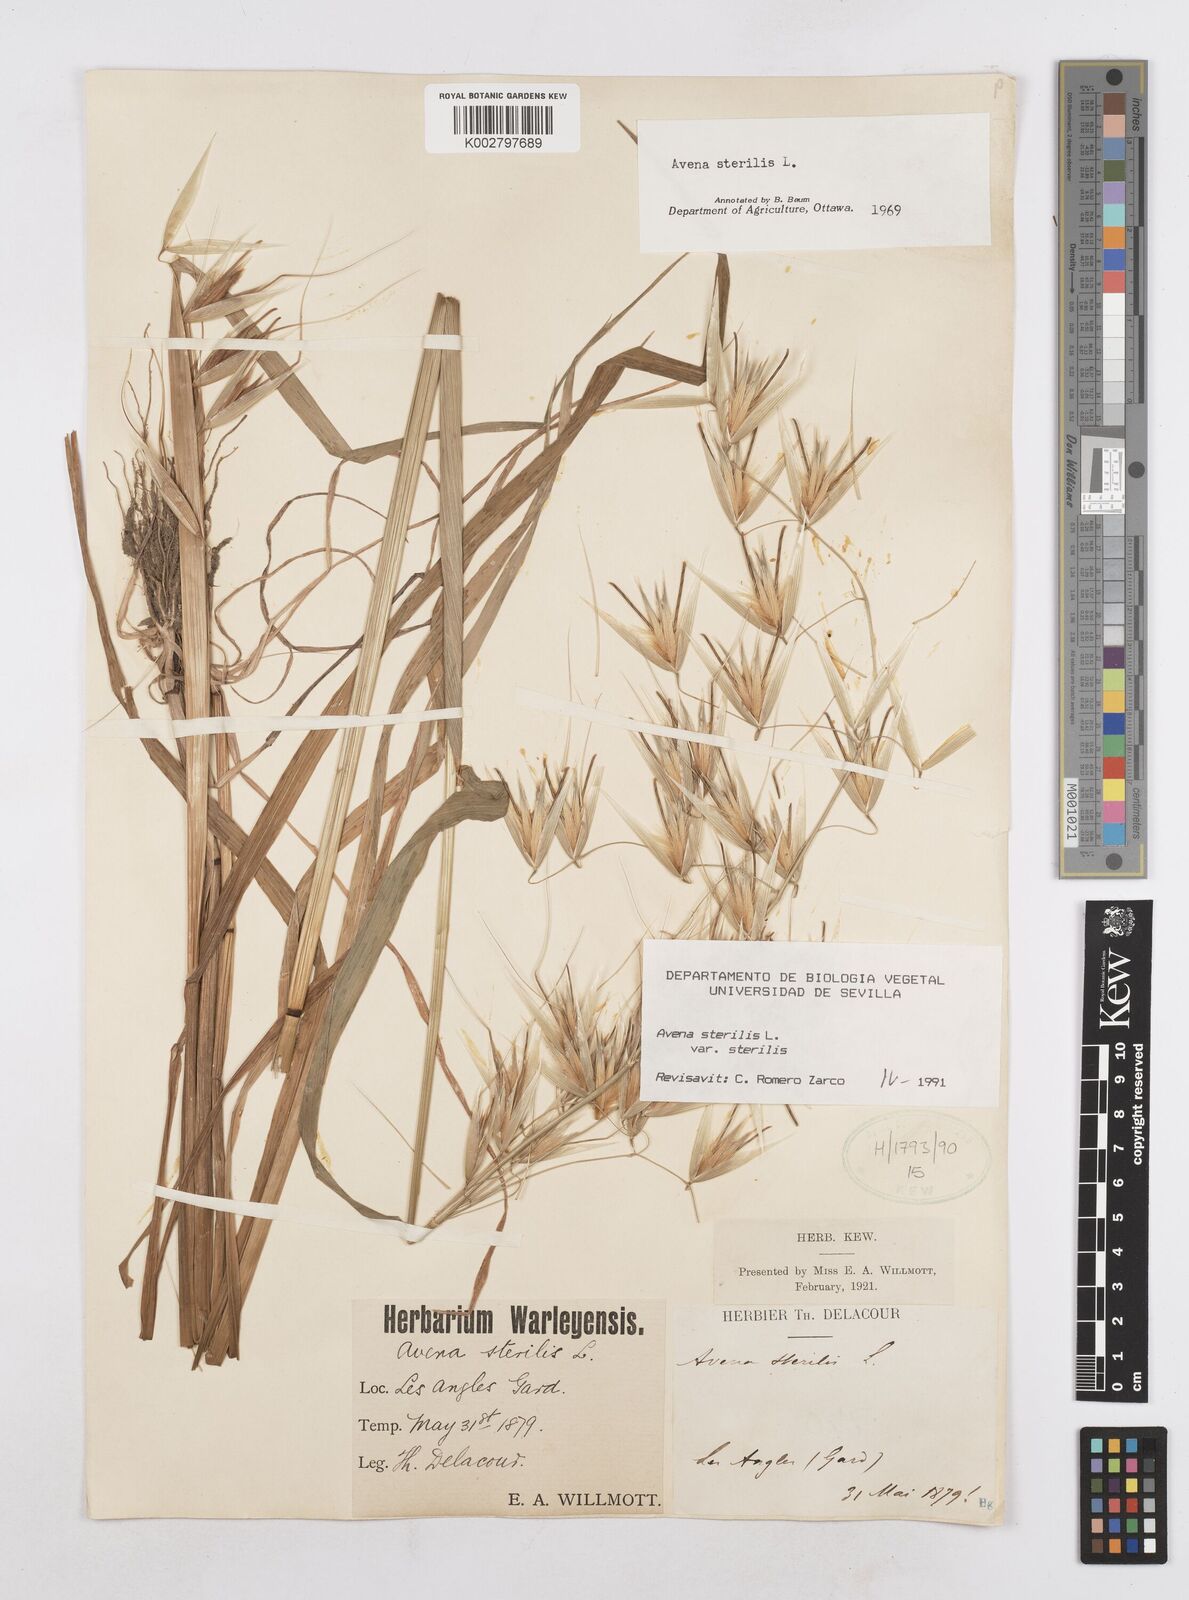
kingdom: Plantae
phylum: Tracheophyta
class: Liliopsida
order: Poales
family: Poaceae
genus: Avena
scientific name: Avena sterilis
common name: Animated oat
